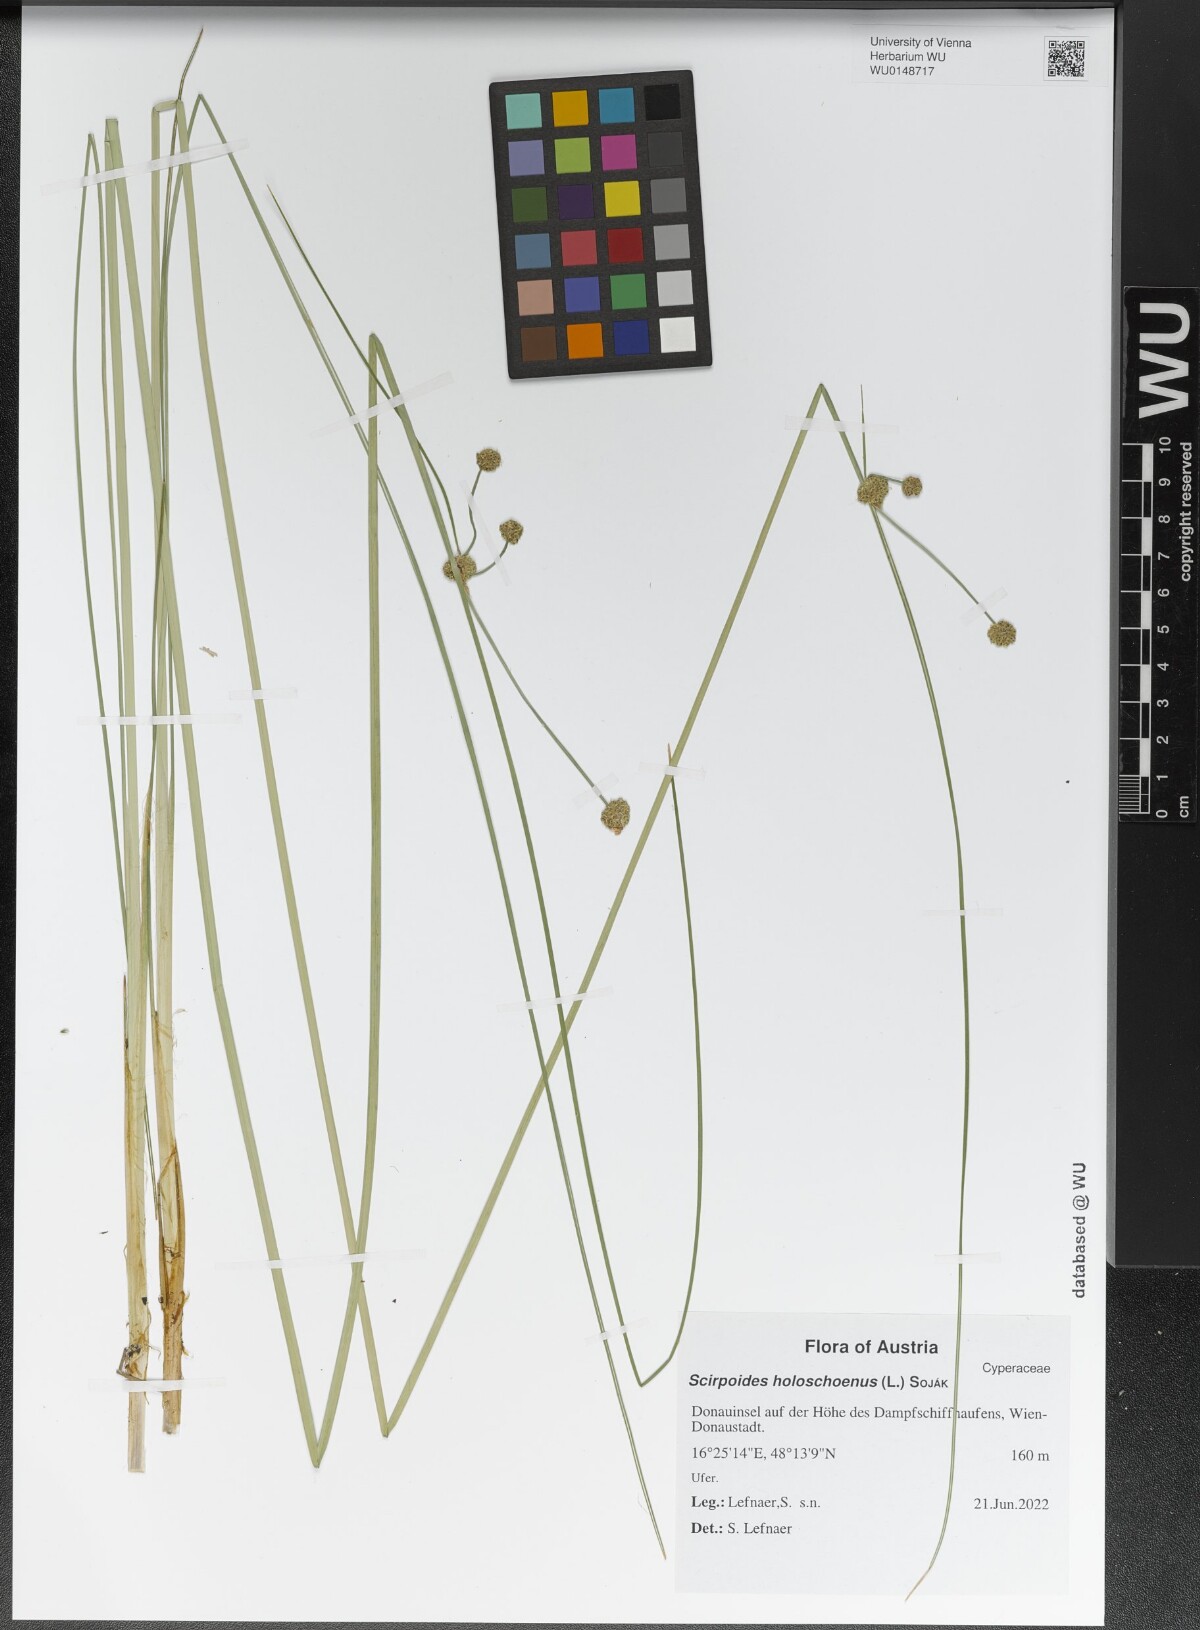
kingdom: Plantae
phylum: Tracheophyta
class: Liliopsida
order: Poales
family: Cyperaceae
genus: Scirpoides
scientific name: Scirpoides holoschoenus
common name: Round-headed club-rush
